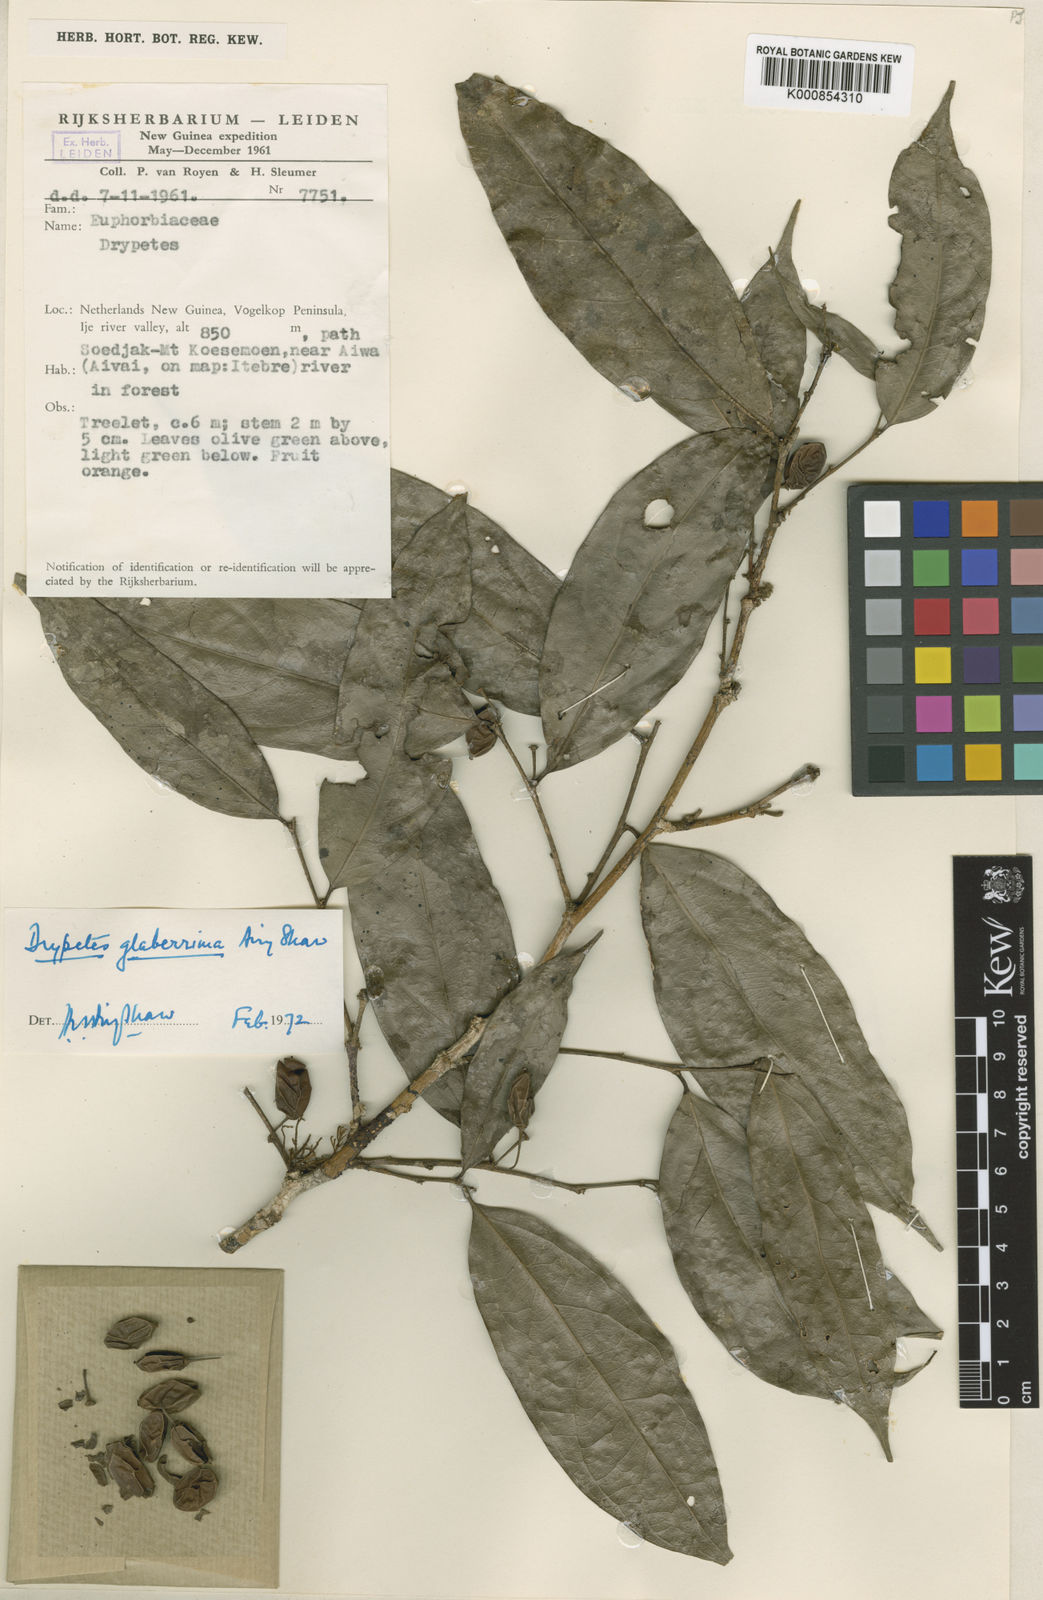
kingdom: Plantae
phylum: Tracheophyta
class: Magnoliopsida
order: Malpighiales
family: Putranjivaceae
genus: Drypetes
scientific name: Drypetes
